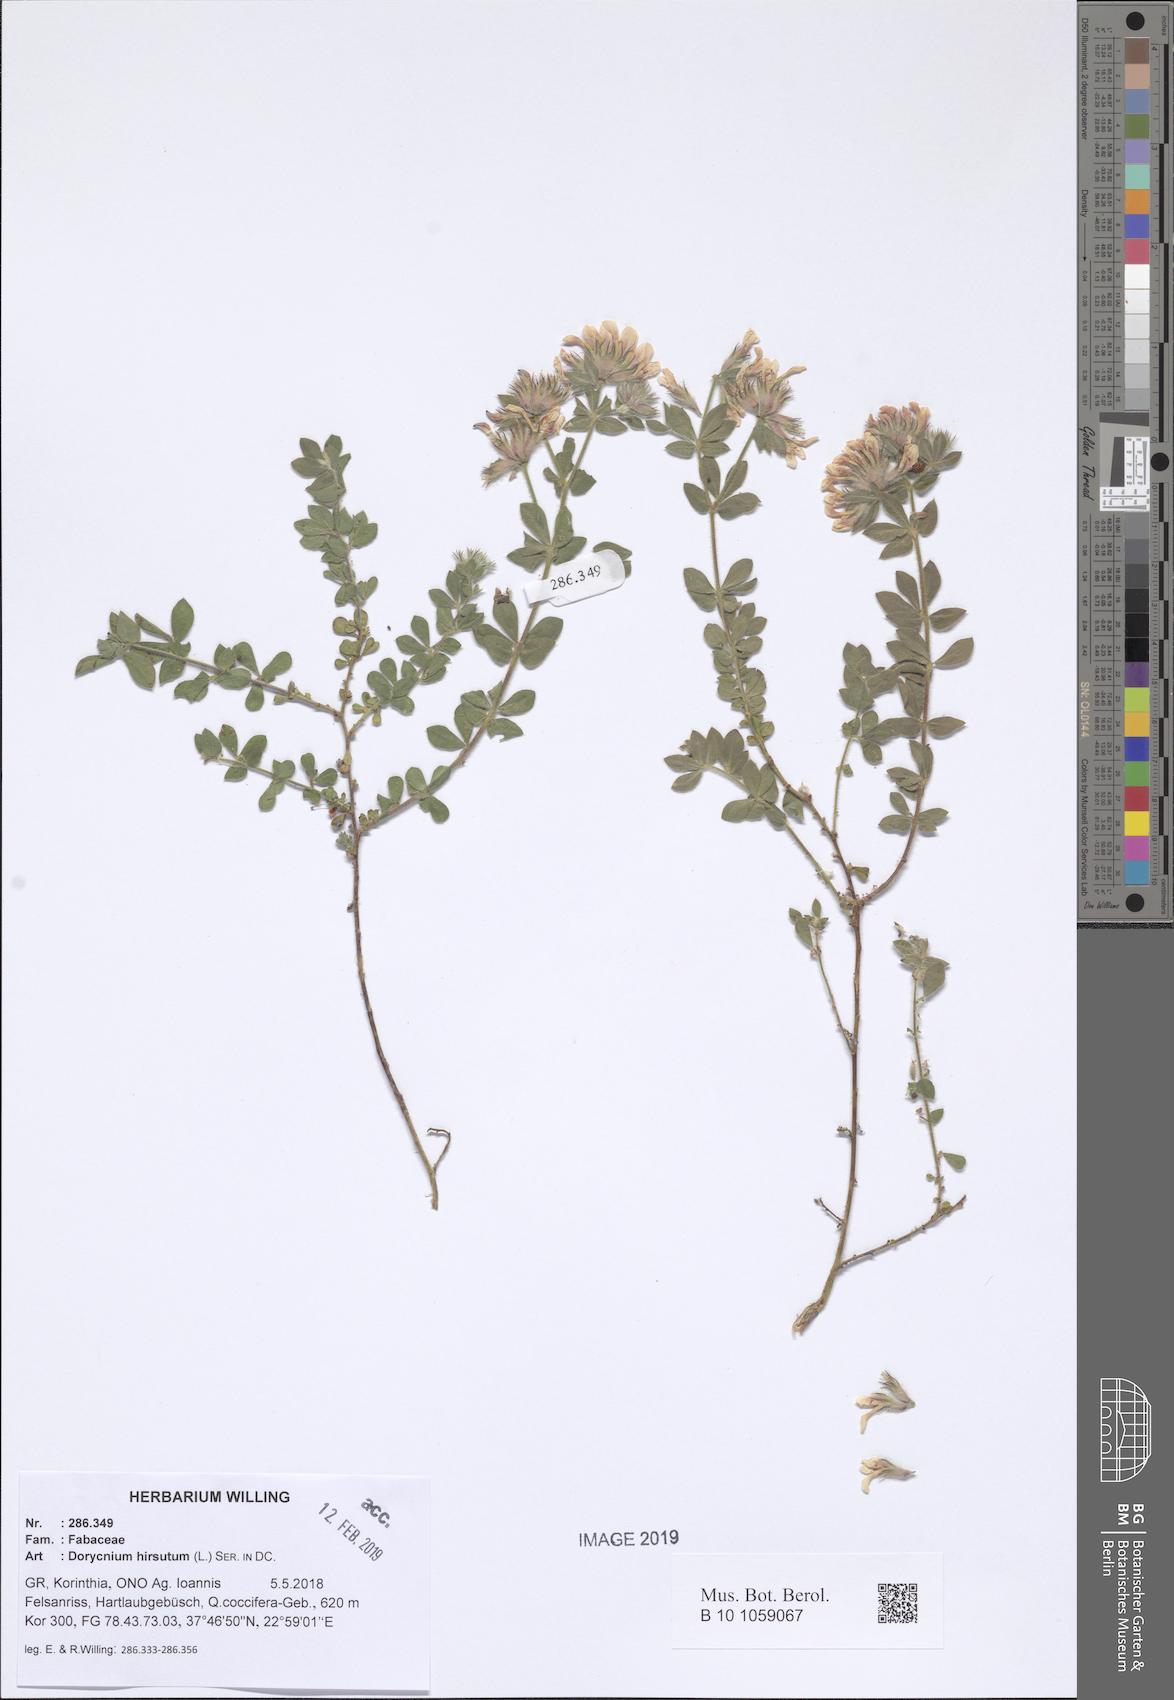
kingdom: Plantae
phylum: Tracheophyta
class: Magnoliopsida
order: Fabales
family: Fabaceae
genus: Lotus
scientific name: Lotus hirsutus
